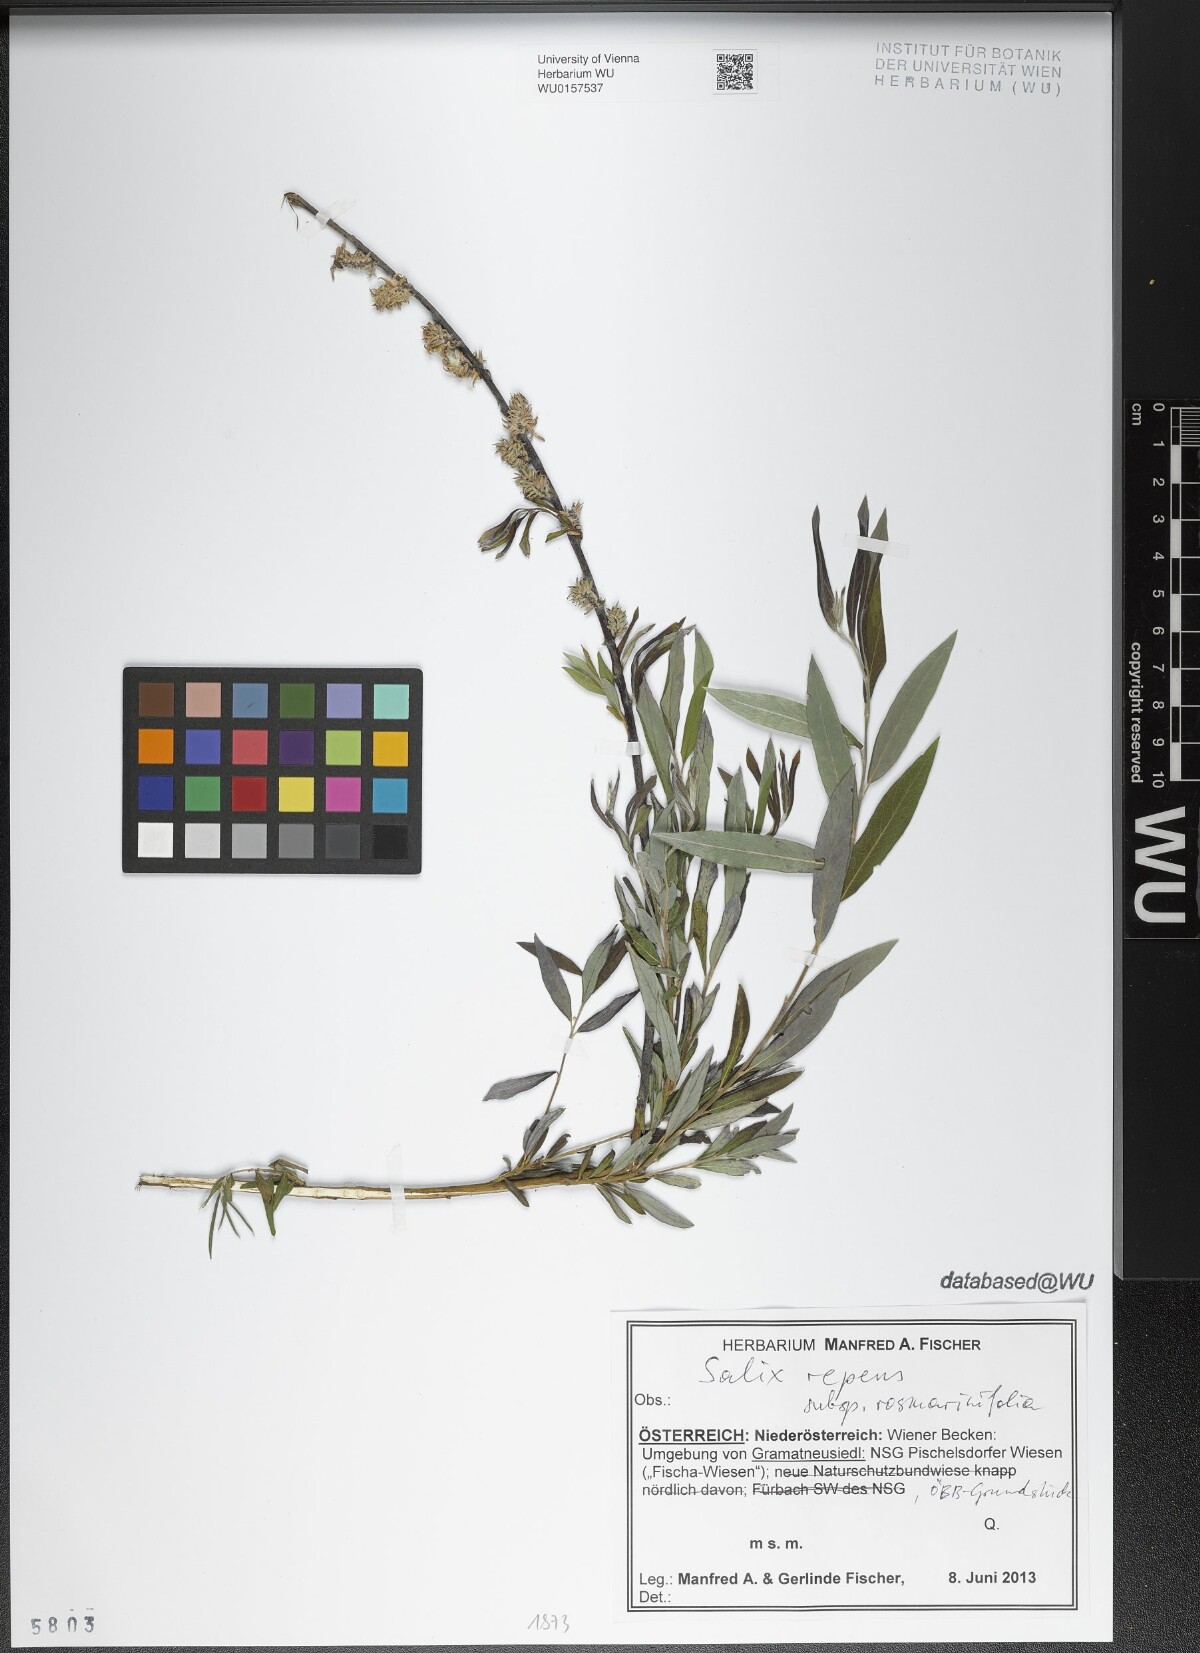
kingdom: Plantae
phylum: Tracheophyta
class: Magnoliopsida
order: Malpighiales
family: Salicaceae
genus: Salix
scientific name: Salix repens
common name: Creeping willow
